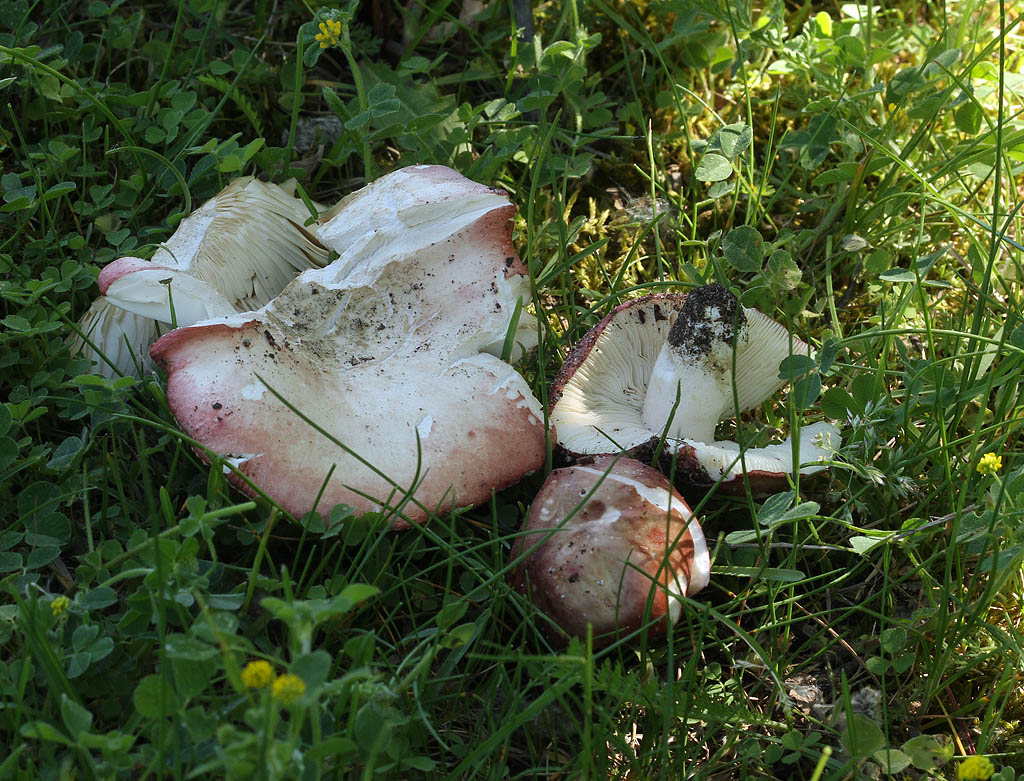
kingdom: Fungi
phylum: Basidiomycota
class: Agaricomycetes
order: Russulales
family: Russulaceae
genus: Russula
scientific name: Russula depallens
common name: falmende skørhat
